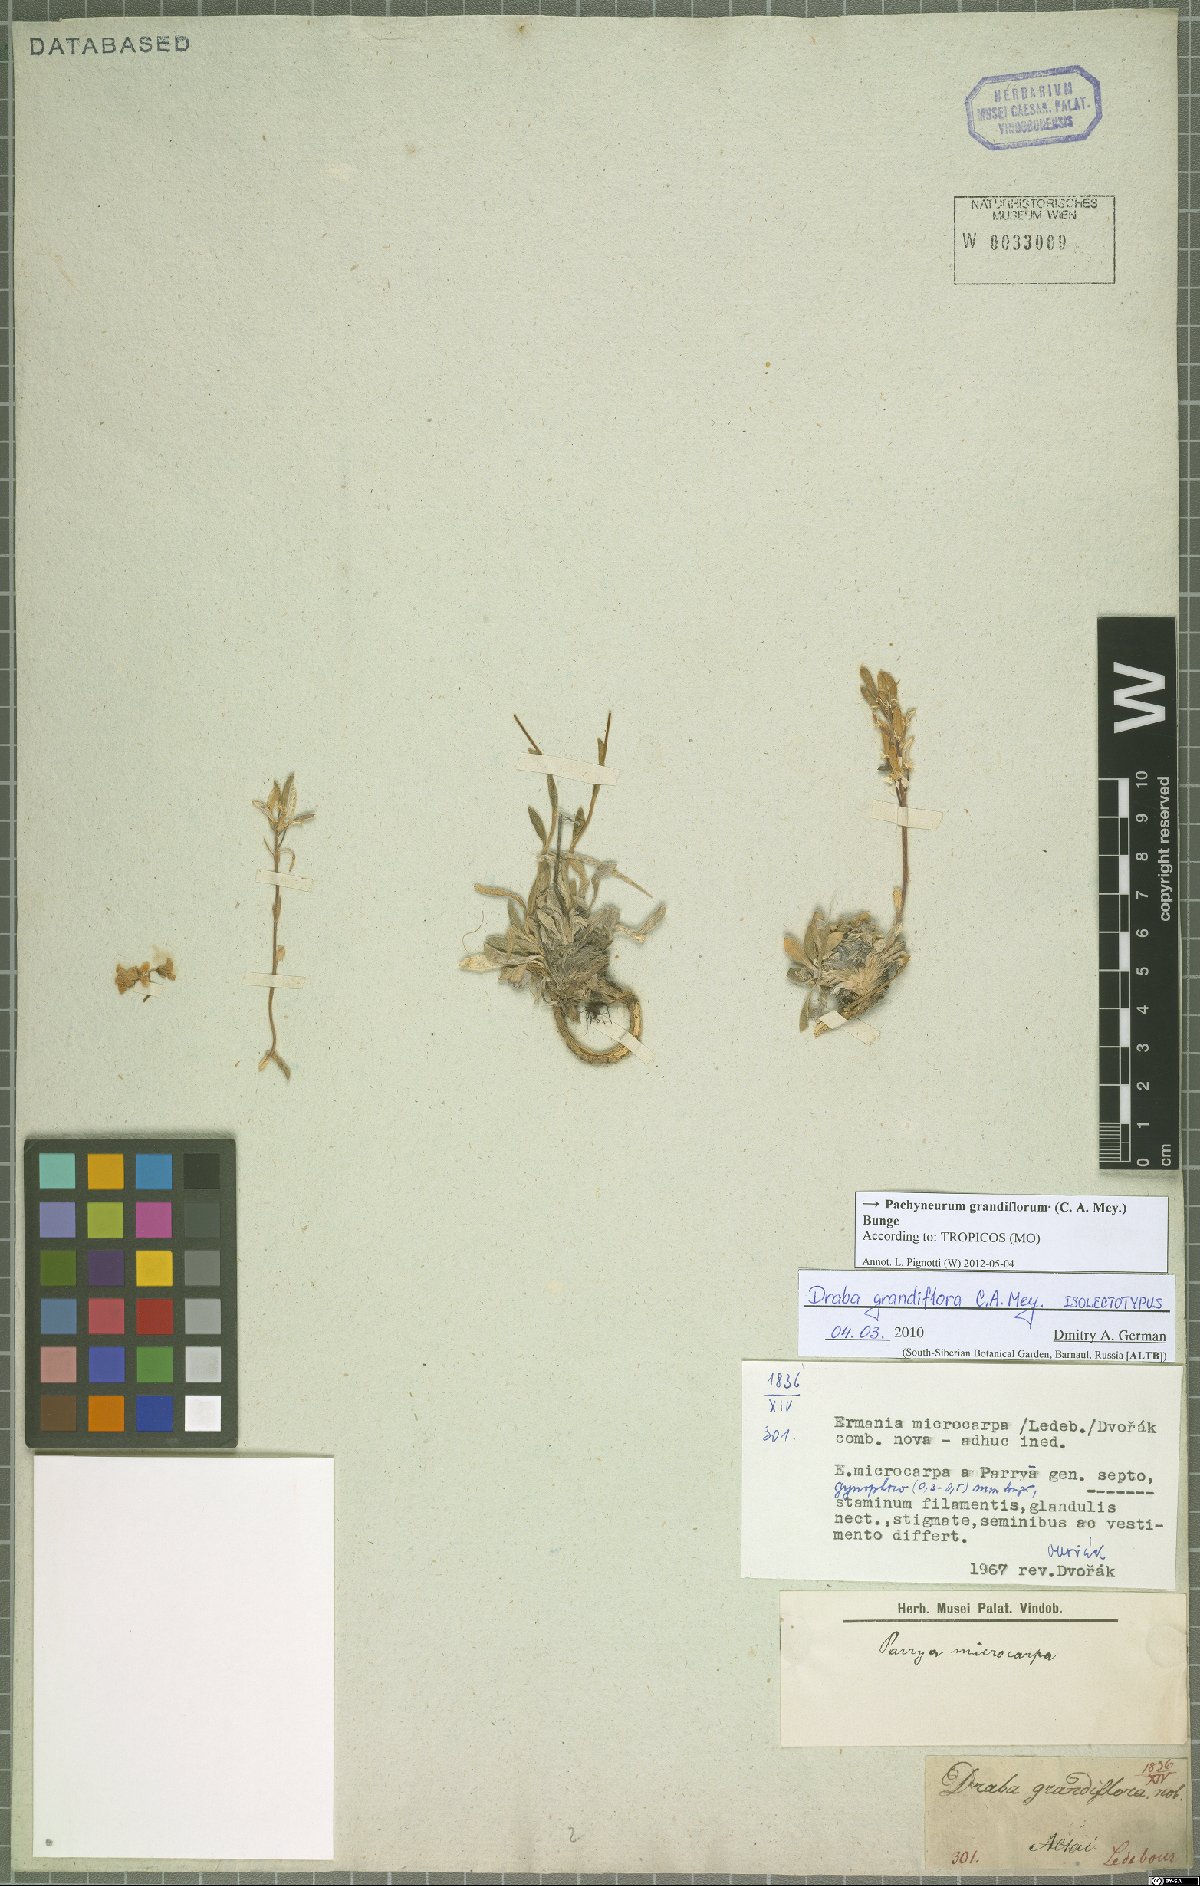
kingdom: Plantae
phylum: Tracheophyta
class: Magnoliopsida
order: Brassicales
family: Brassicaceae
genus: Pachyneurum
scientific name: Pachyneurum grandiflorum
